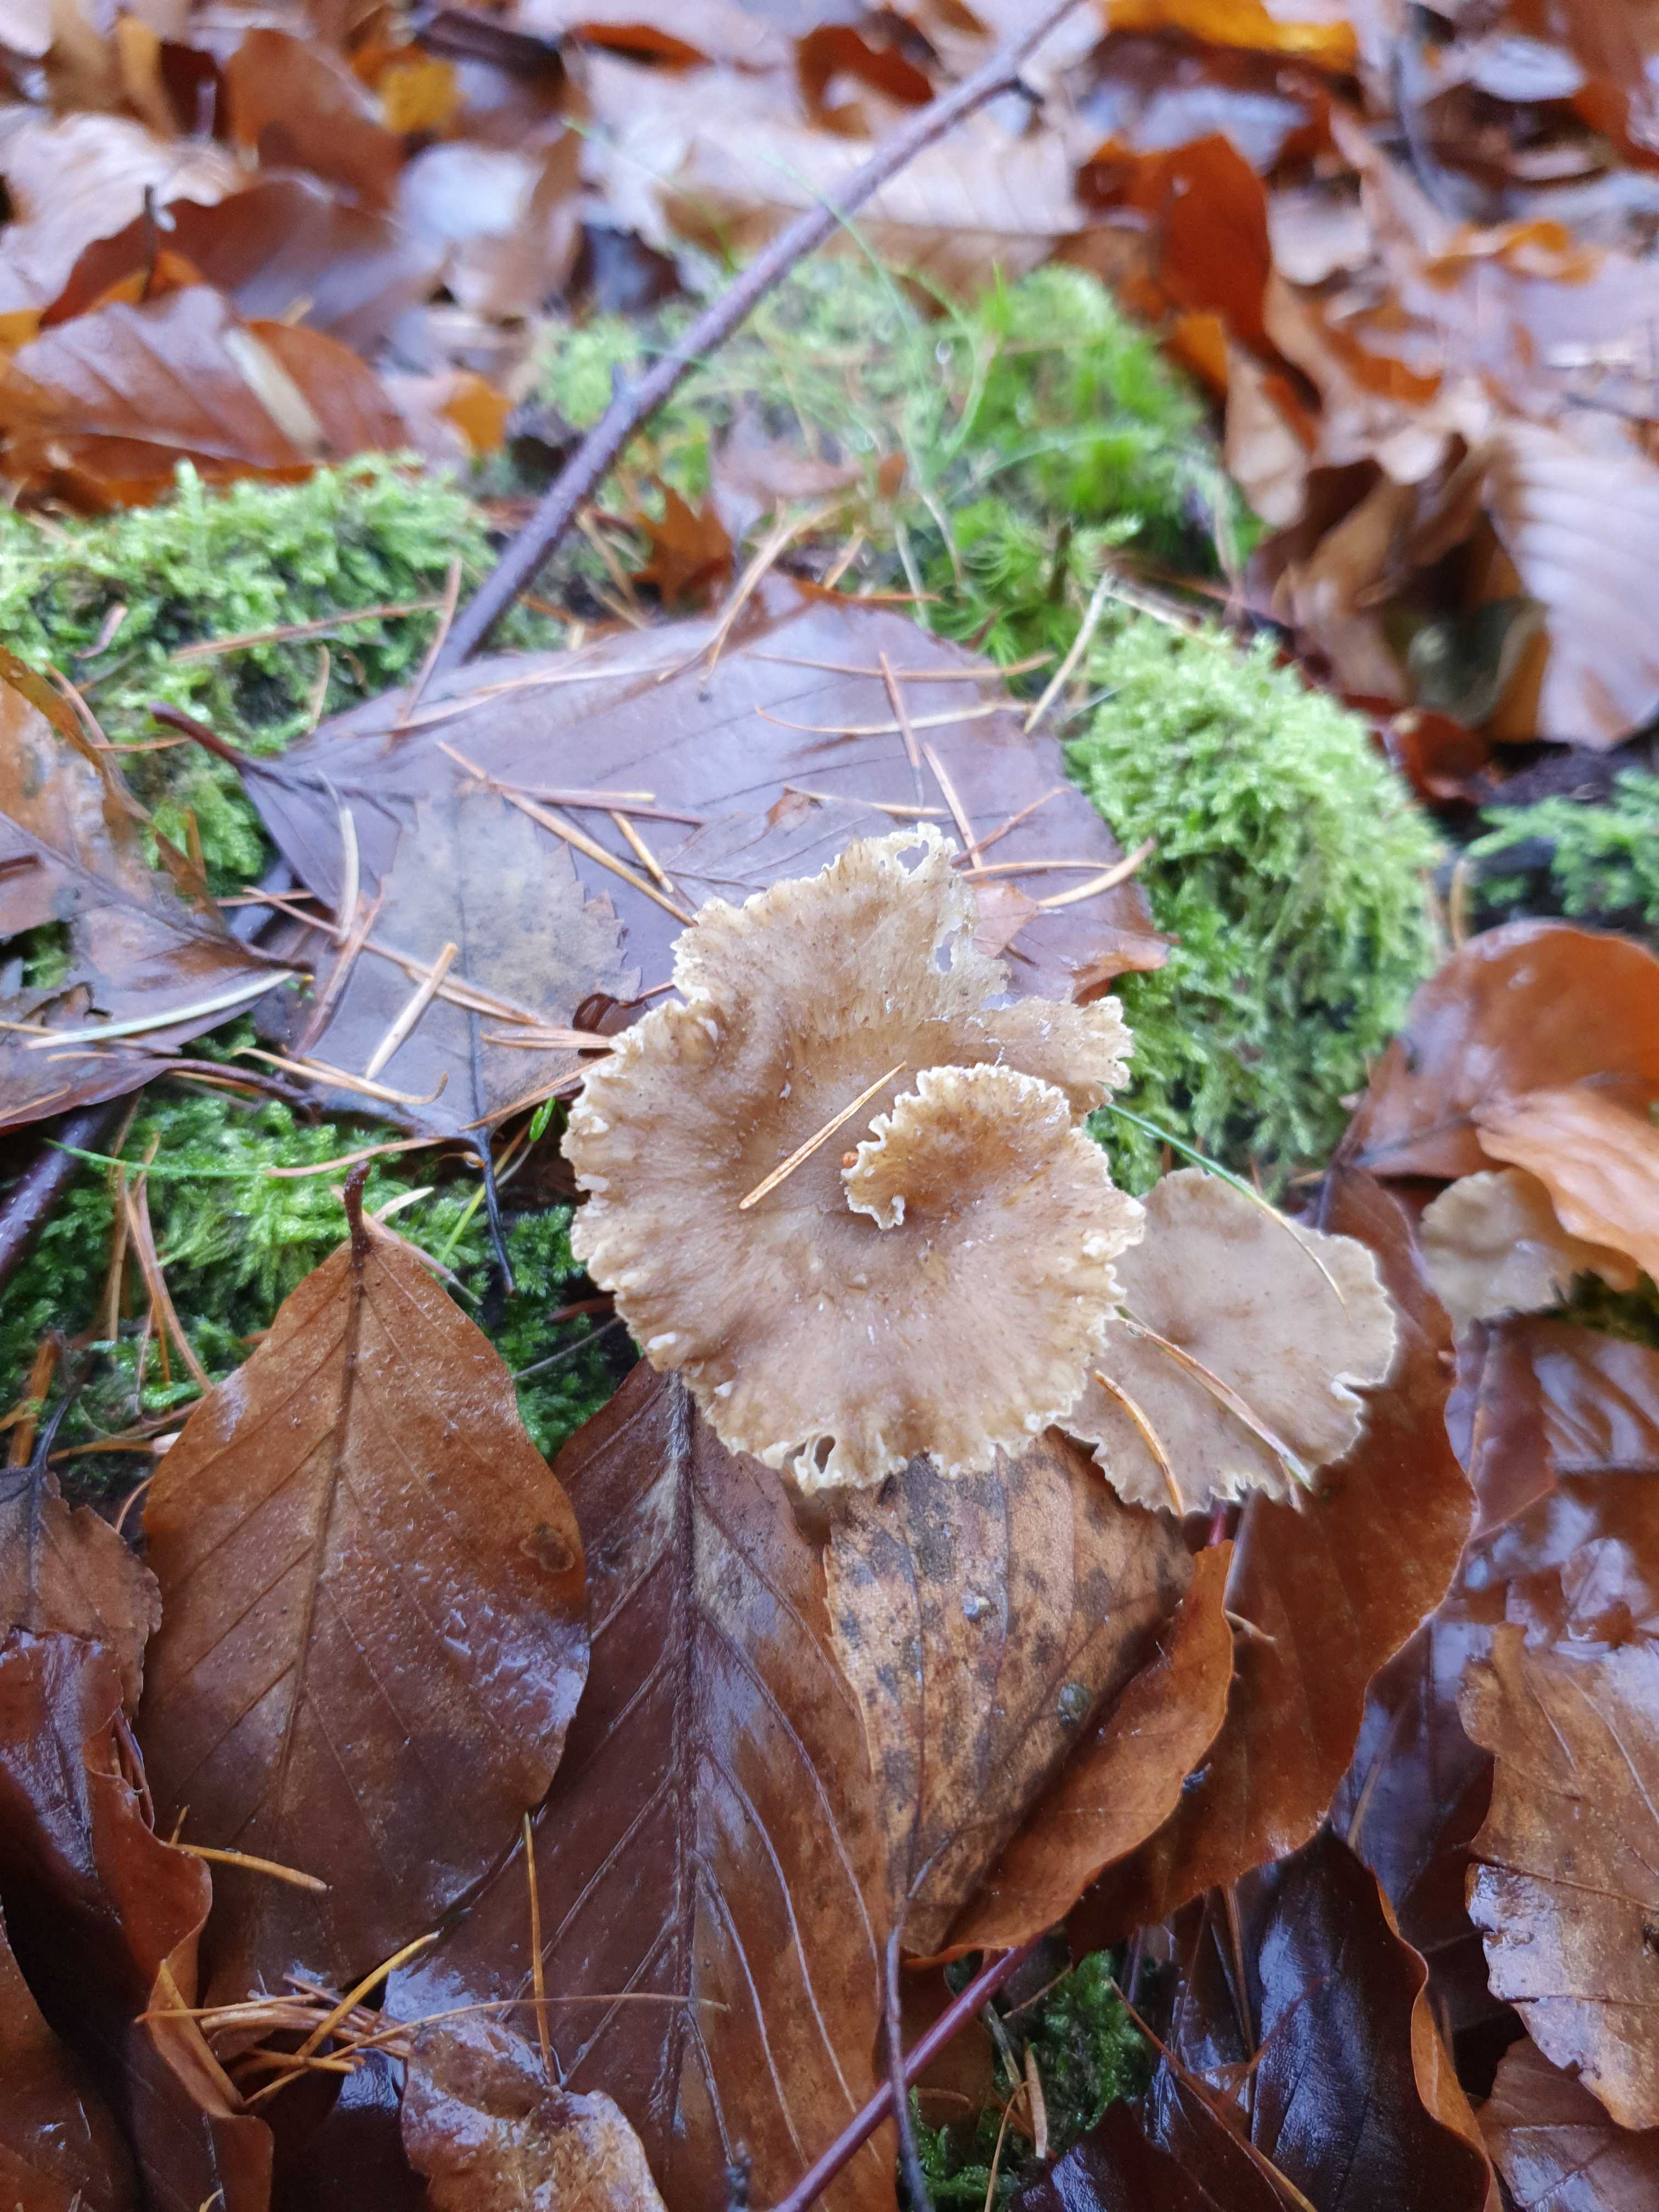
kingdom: Fungi
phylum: Basidiomycota
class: Agaricomycetes
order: Cantharellales
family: Hydnaceae
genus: Craterellus
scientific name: Craterellus tubaeformis
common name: tragt-kantarel
